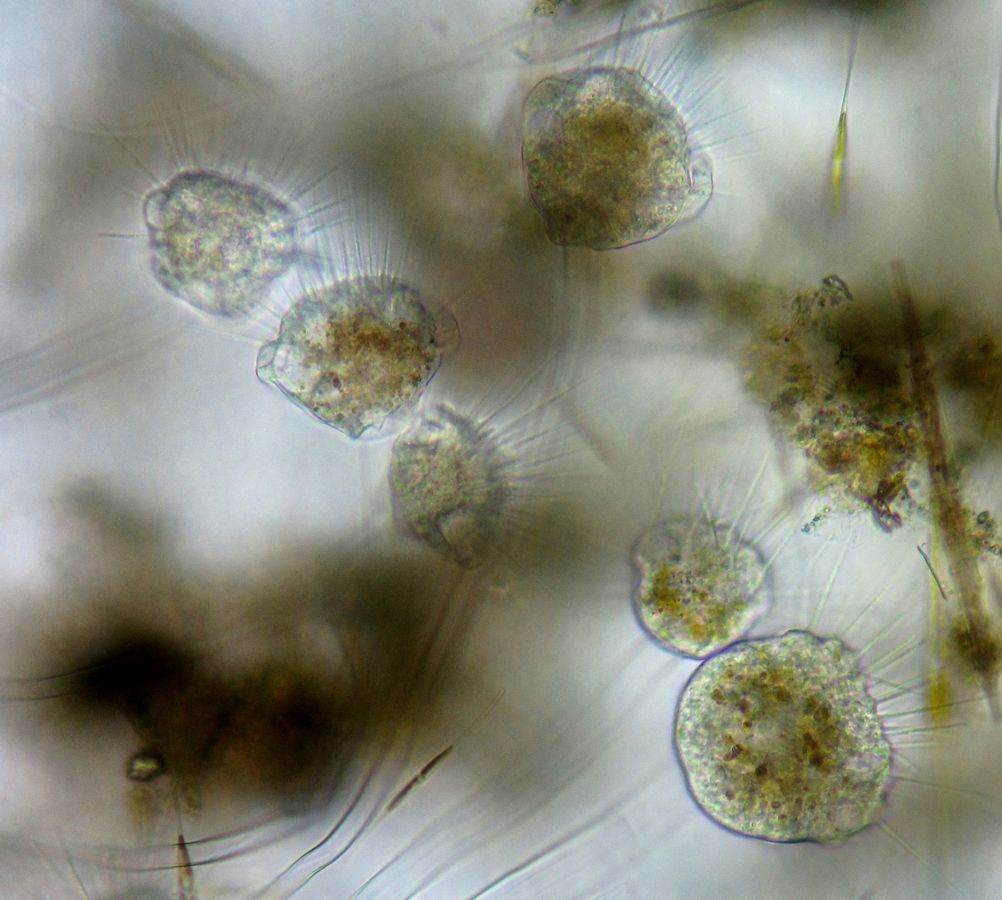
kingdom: Chromista
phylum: Ciliophora
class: Phyllopharyngea
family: Ephelotidae
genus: Ephelota
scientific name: Ephelota mammillata
